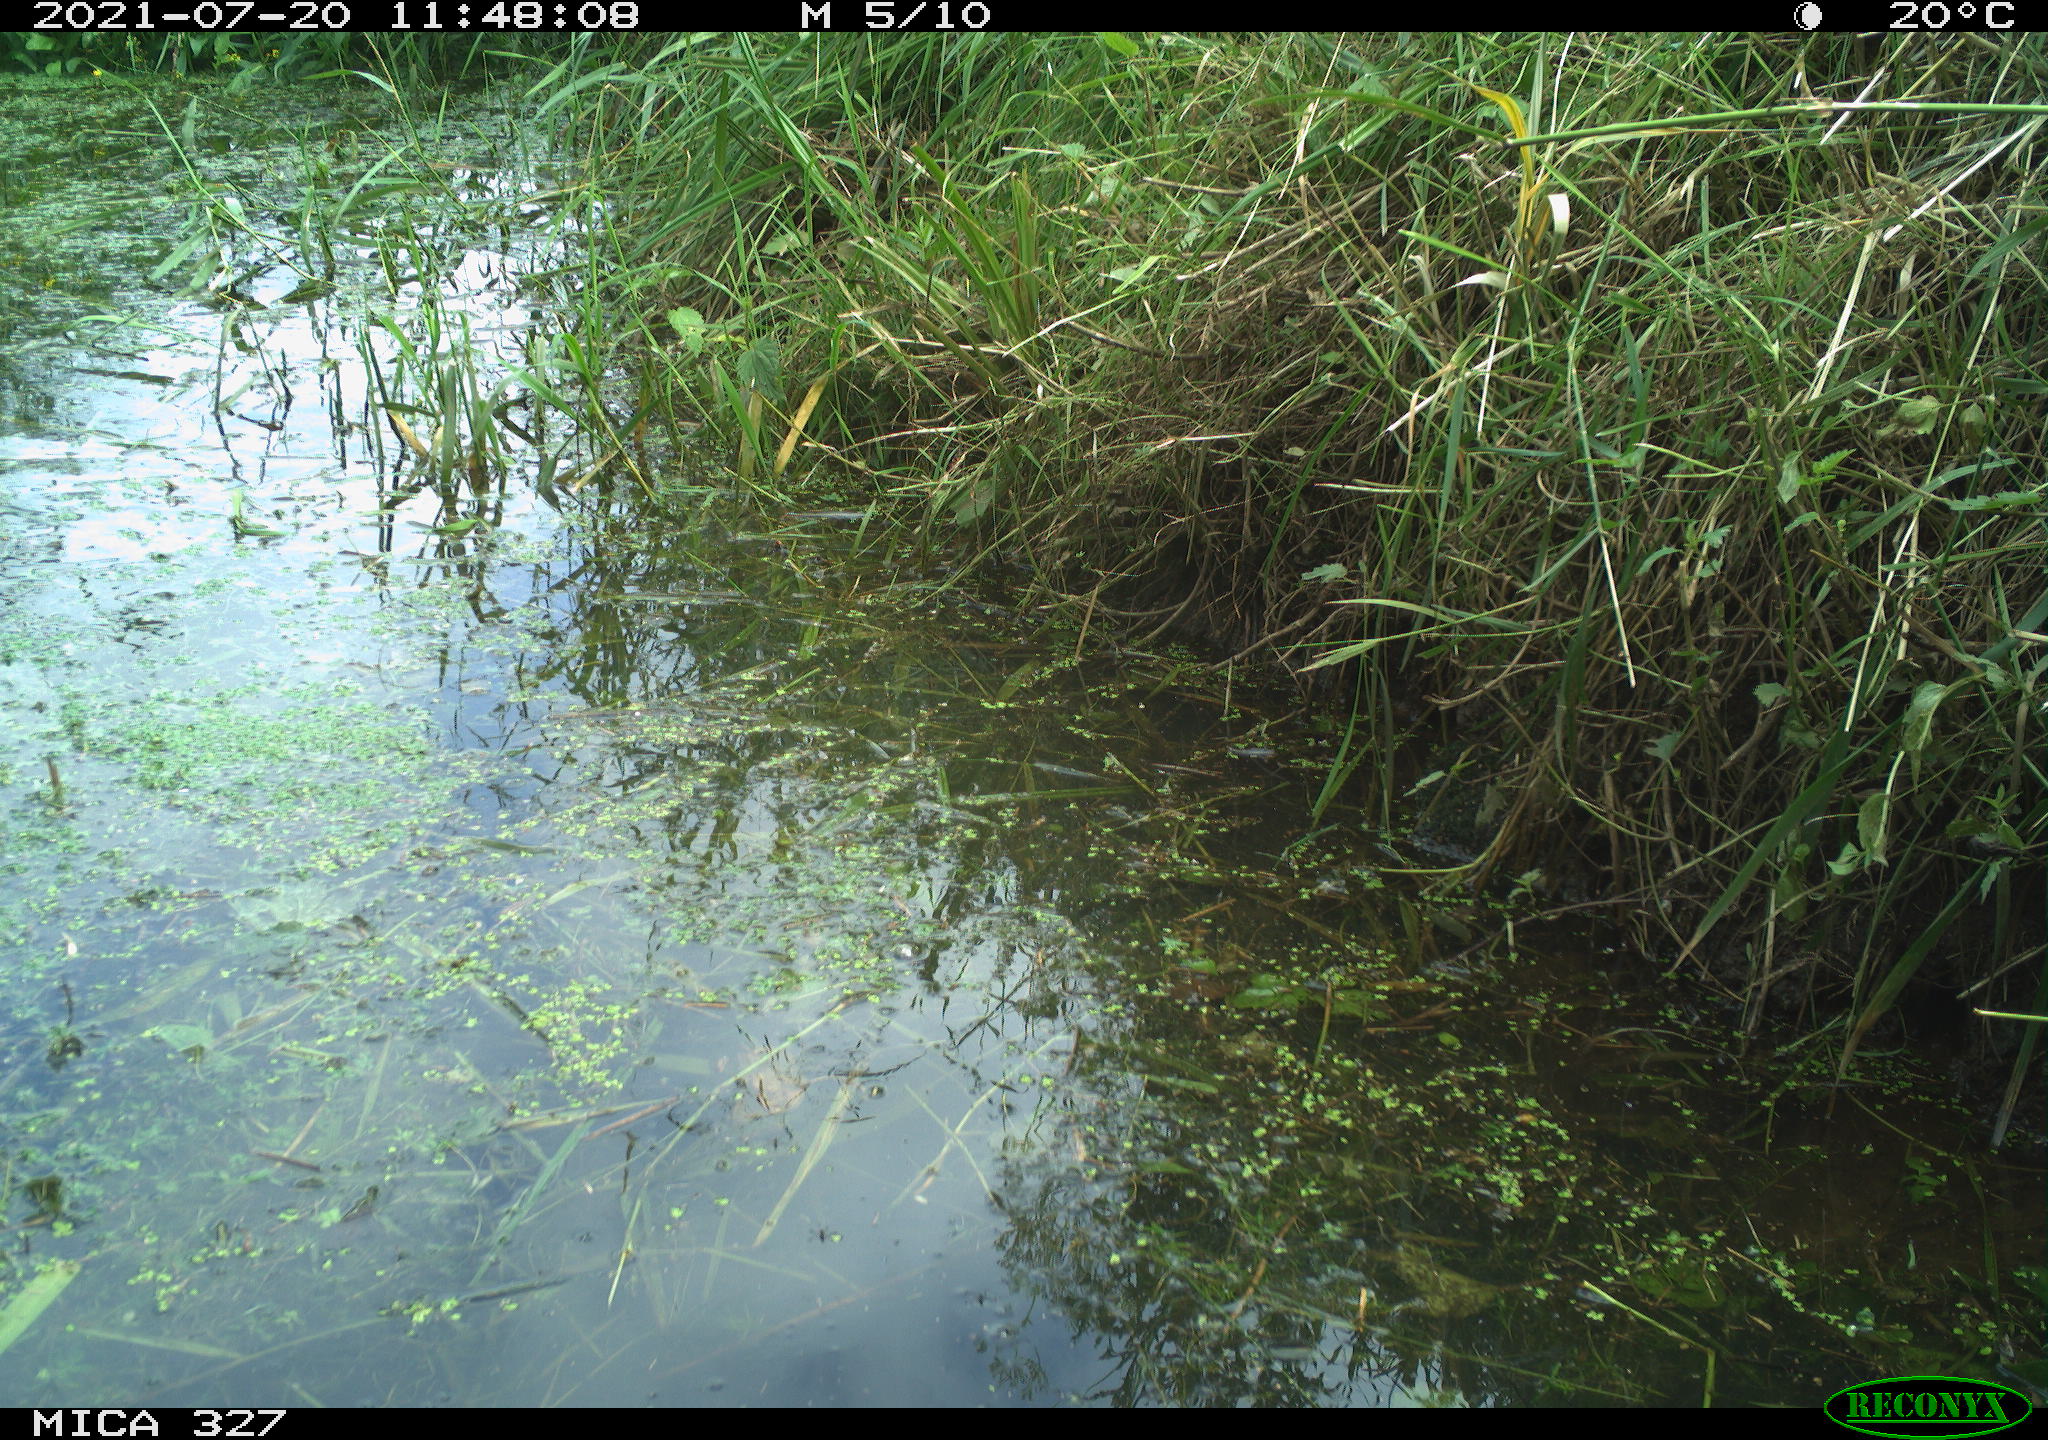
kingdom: Animalia
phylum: Chordata
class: Aves
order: Gruiformes
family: Rallidae
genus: Gallinula
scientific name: Gallinula chloropus
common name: Common moorhen
